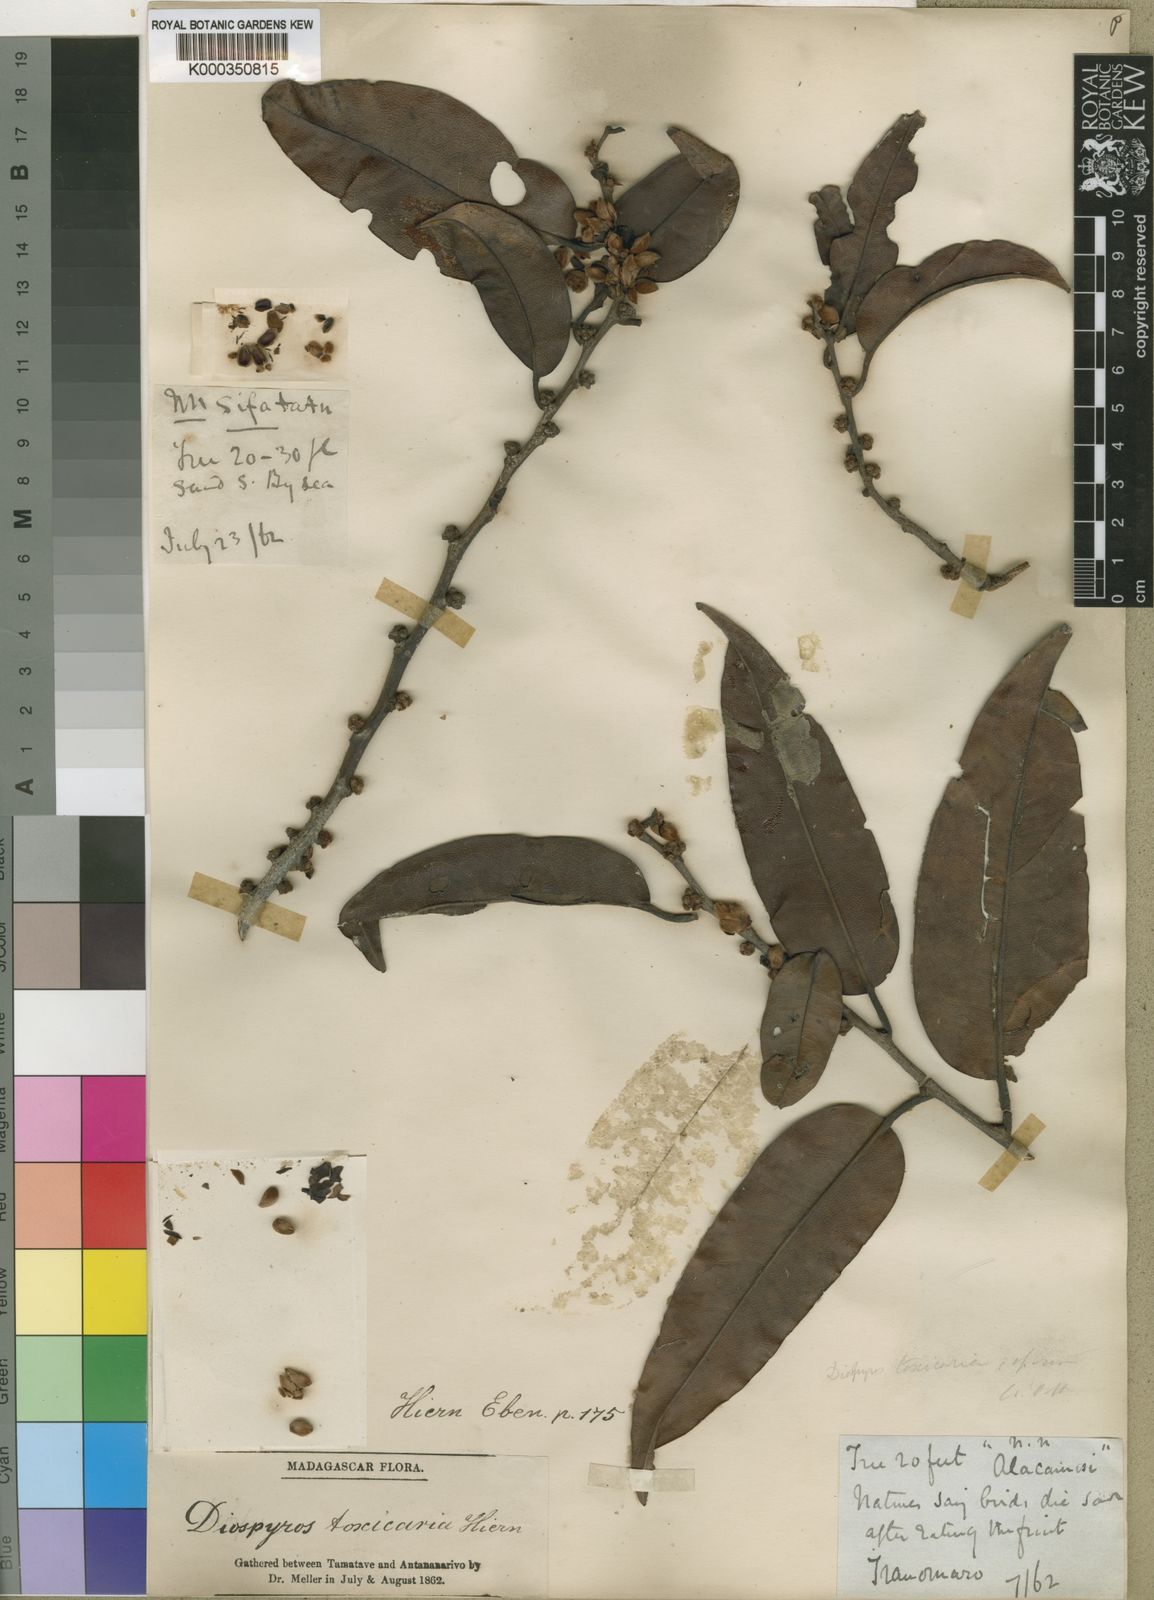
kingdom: Plantae
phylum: Tracheophyta
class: Magnoliopsida
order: Ericales
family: Ebenaceae
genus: Diospyros
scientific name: Diospyros toxicaria
